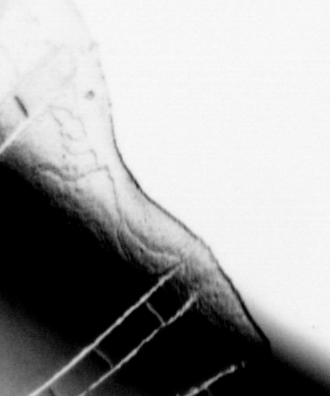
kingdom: Animalia
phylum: Chordata
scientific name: Chordata
